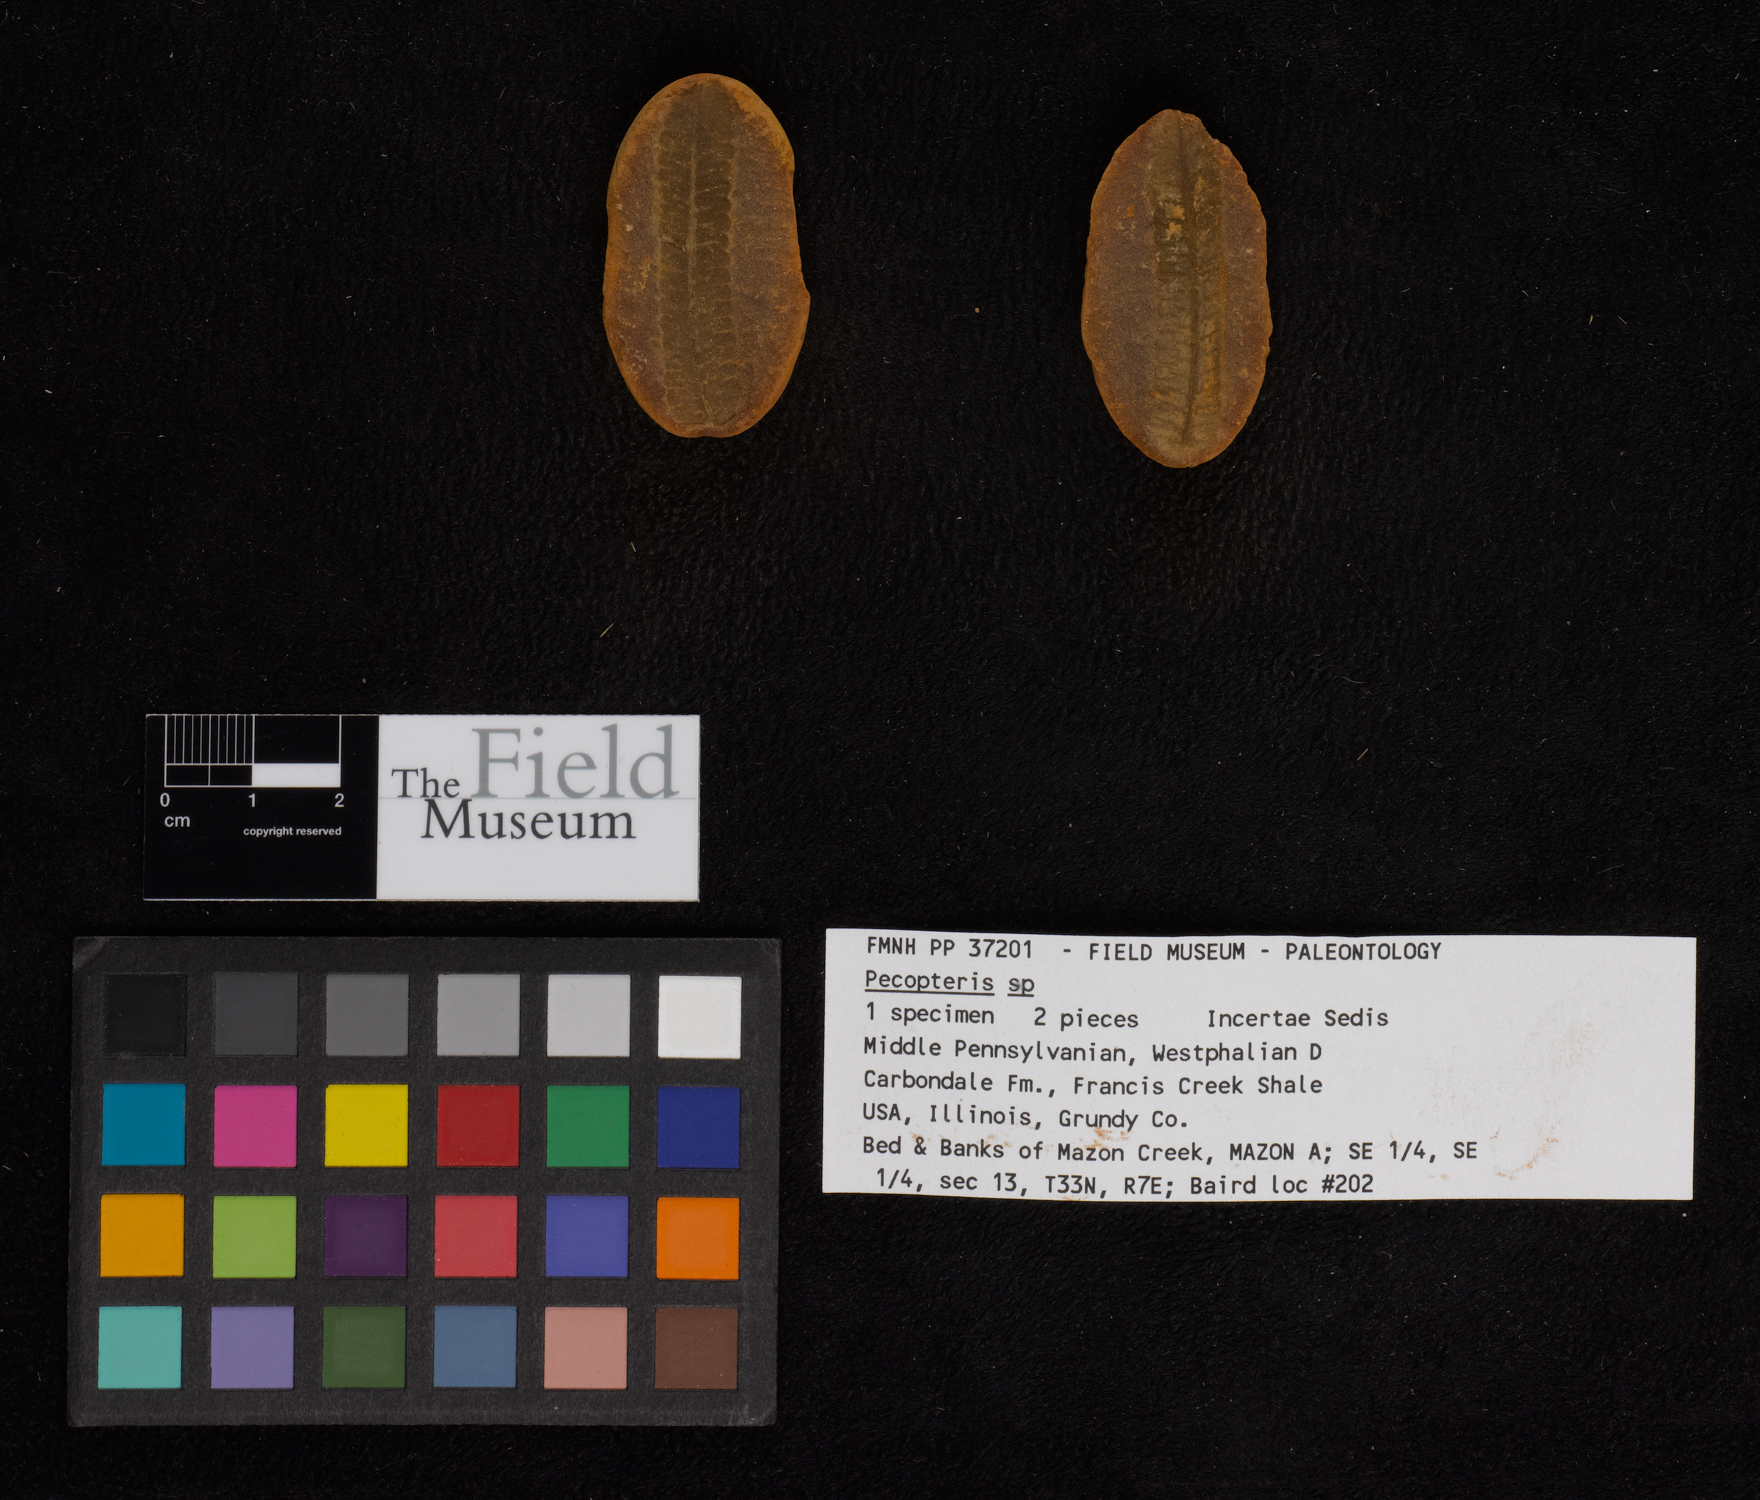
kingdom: Plantae
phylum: Tracheophyta
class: Polypodiopsida
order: Marattiales
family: Asterothecaceae
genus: Pecopteris
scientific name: Pecopteris
